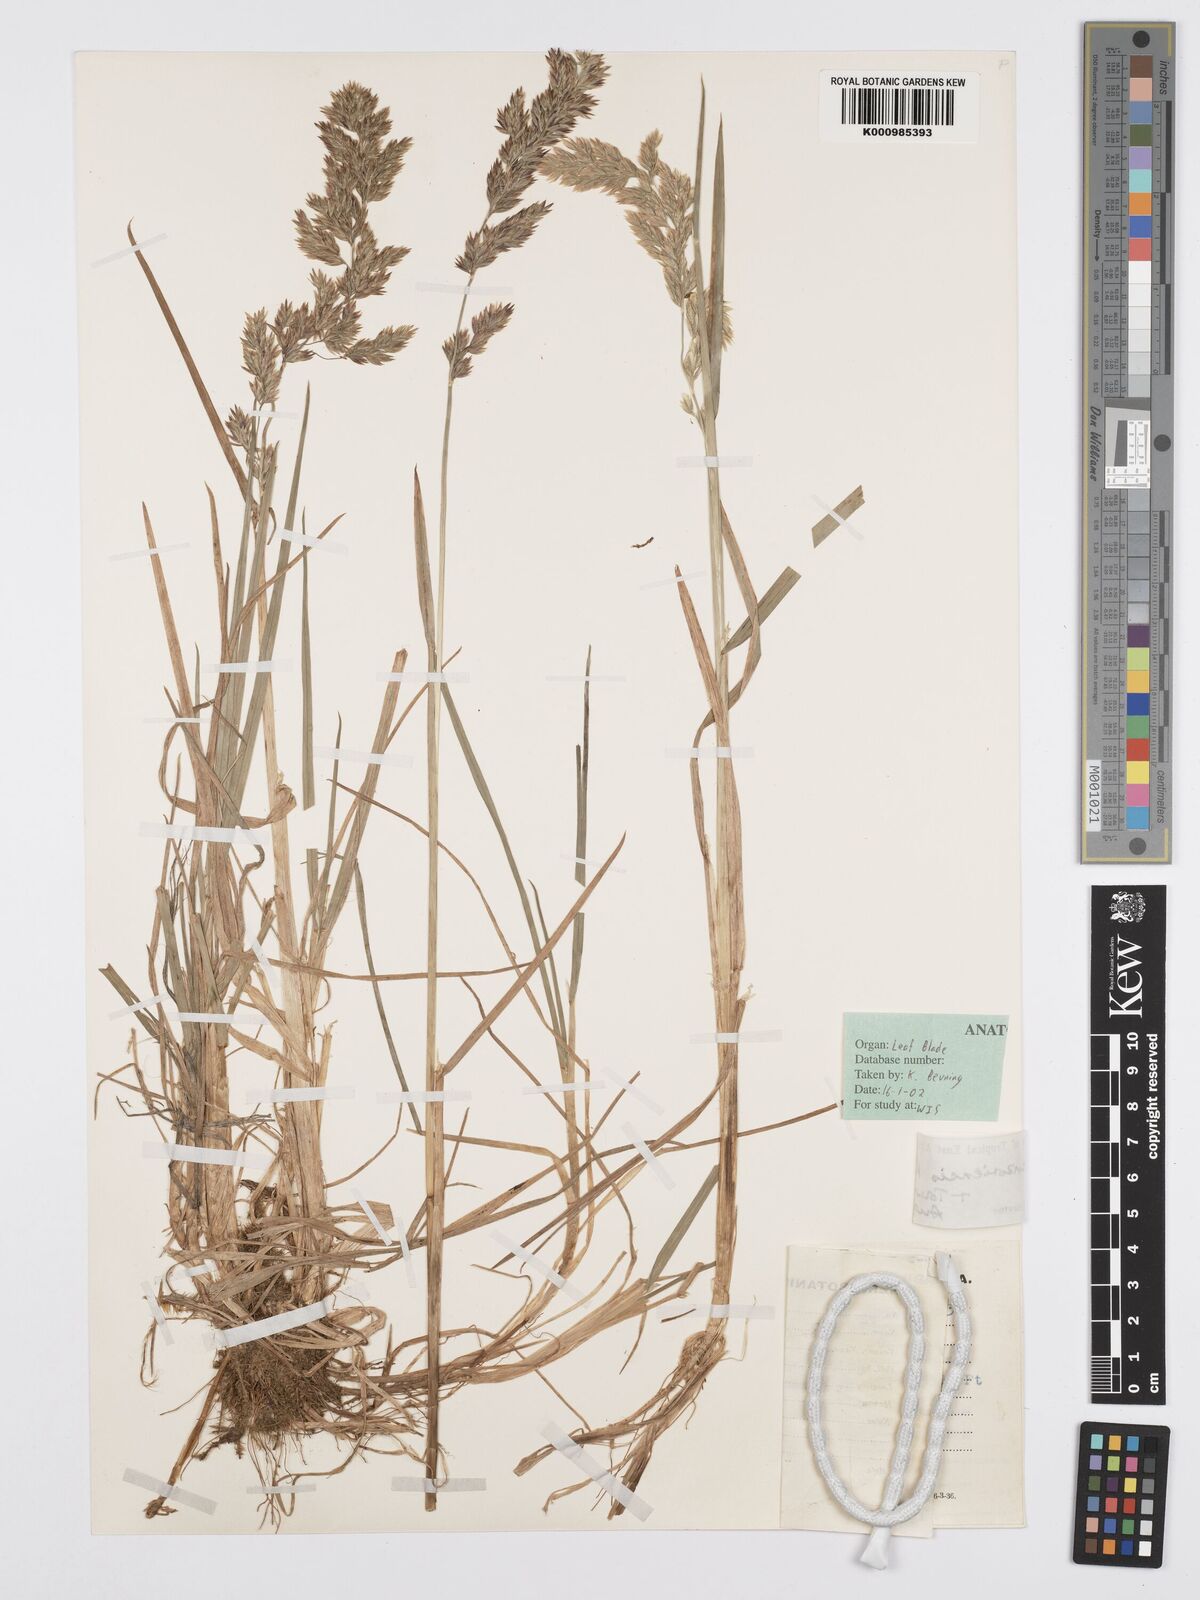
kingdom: Plantae
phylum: Tracheophyta
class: Liliopsida
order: Poales
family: Poaceae
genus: Poa
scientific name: Poa ruwenzoriensis
